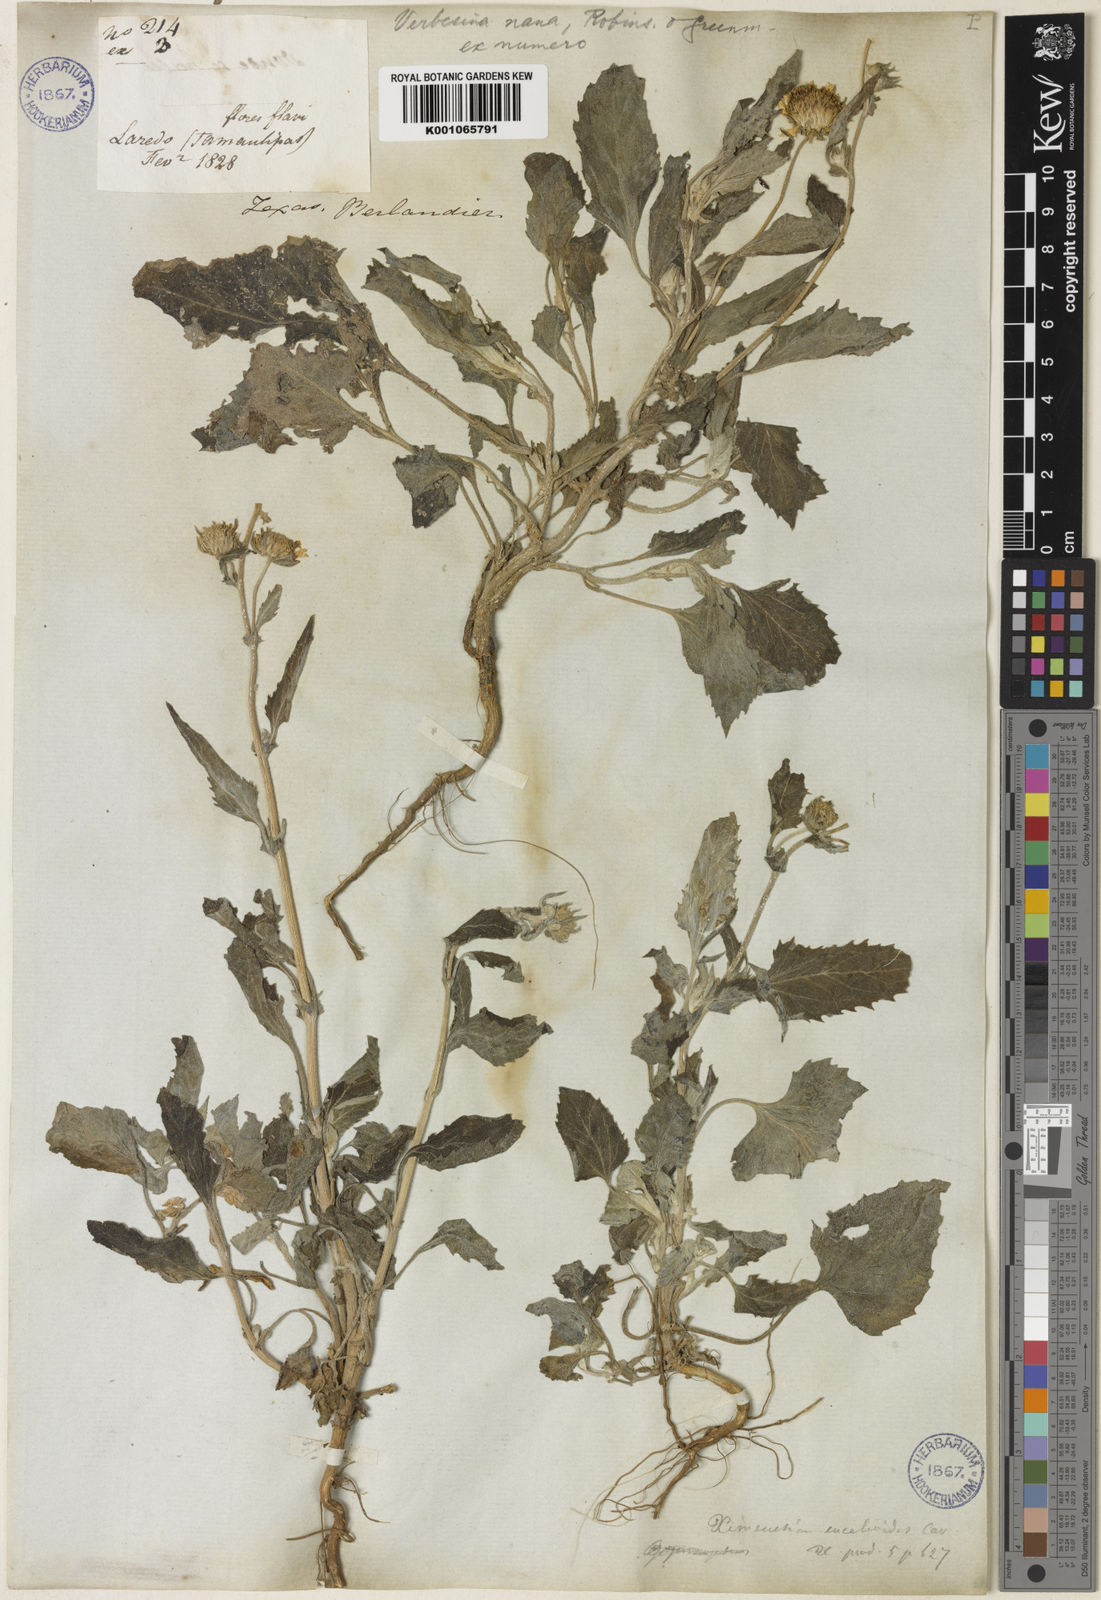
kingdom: Plantae
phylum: Tracheophyta
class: Magnoliopsida
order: Asterales
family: Asteraceae
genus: Verbesina
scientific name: Verbesina nana
